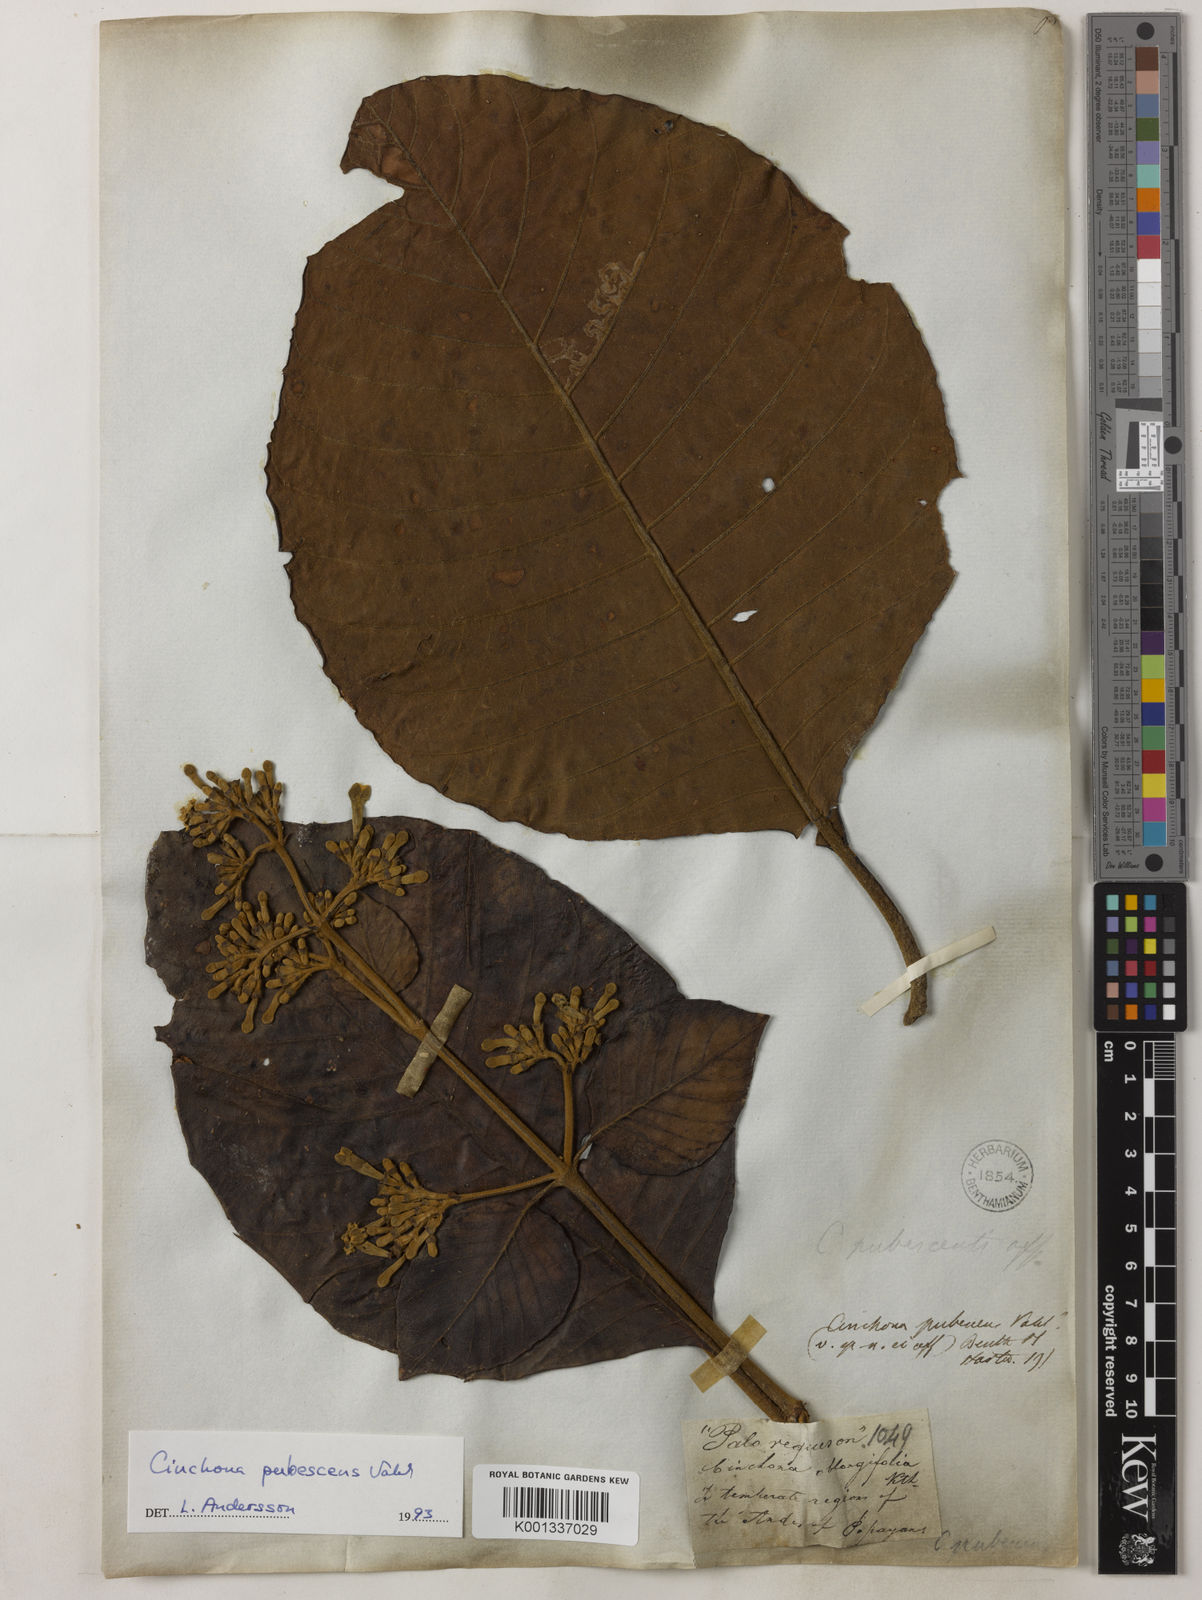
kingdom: Plantae
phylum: Tracheophyta
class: Magnoliopsida
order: Gentianales
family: Rubiaceae
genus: Cinchona
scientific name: Cinchona pubescens
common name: Quinine
